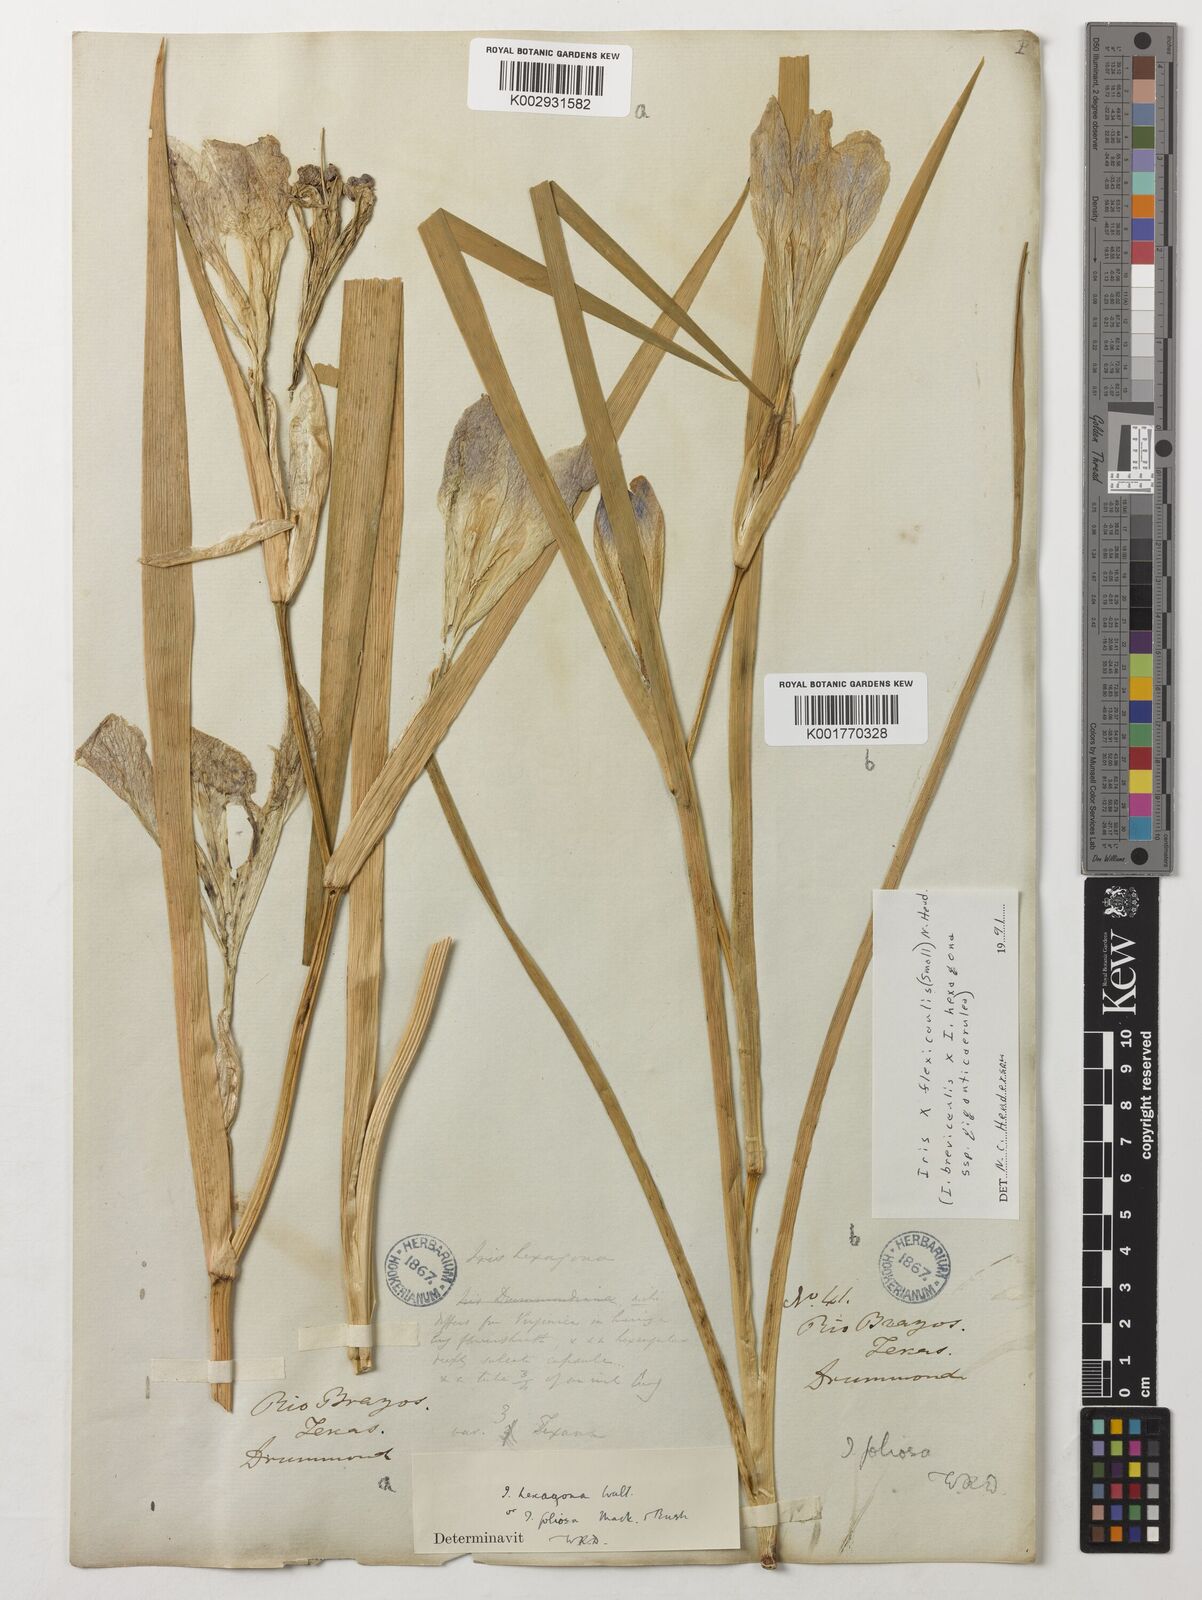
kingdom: Plantae
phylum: Tracheophyta
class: Liliopsida
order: Asparagales
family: Iridaceae
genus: Iris
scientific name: Iris brevicaulis
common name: Zigzag iris
